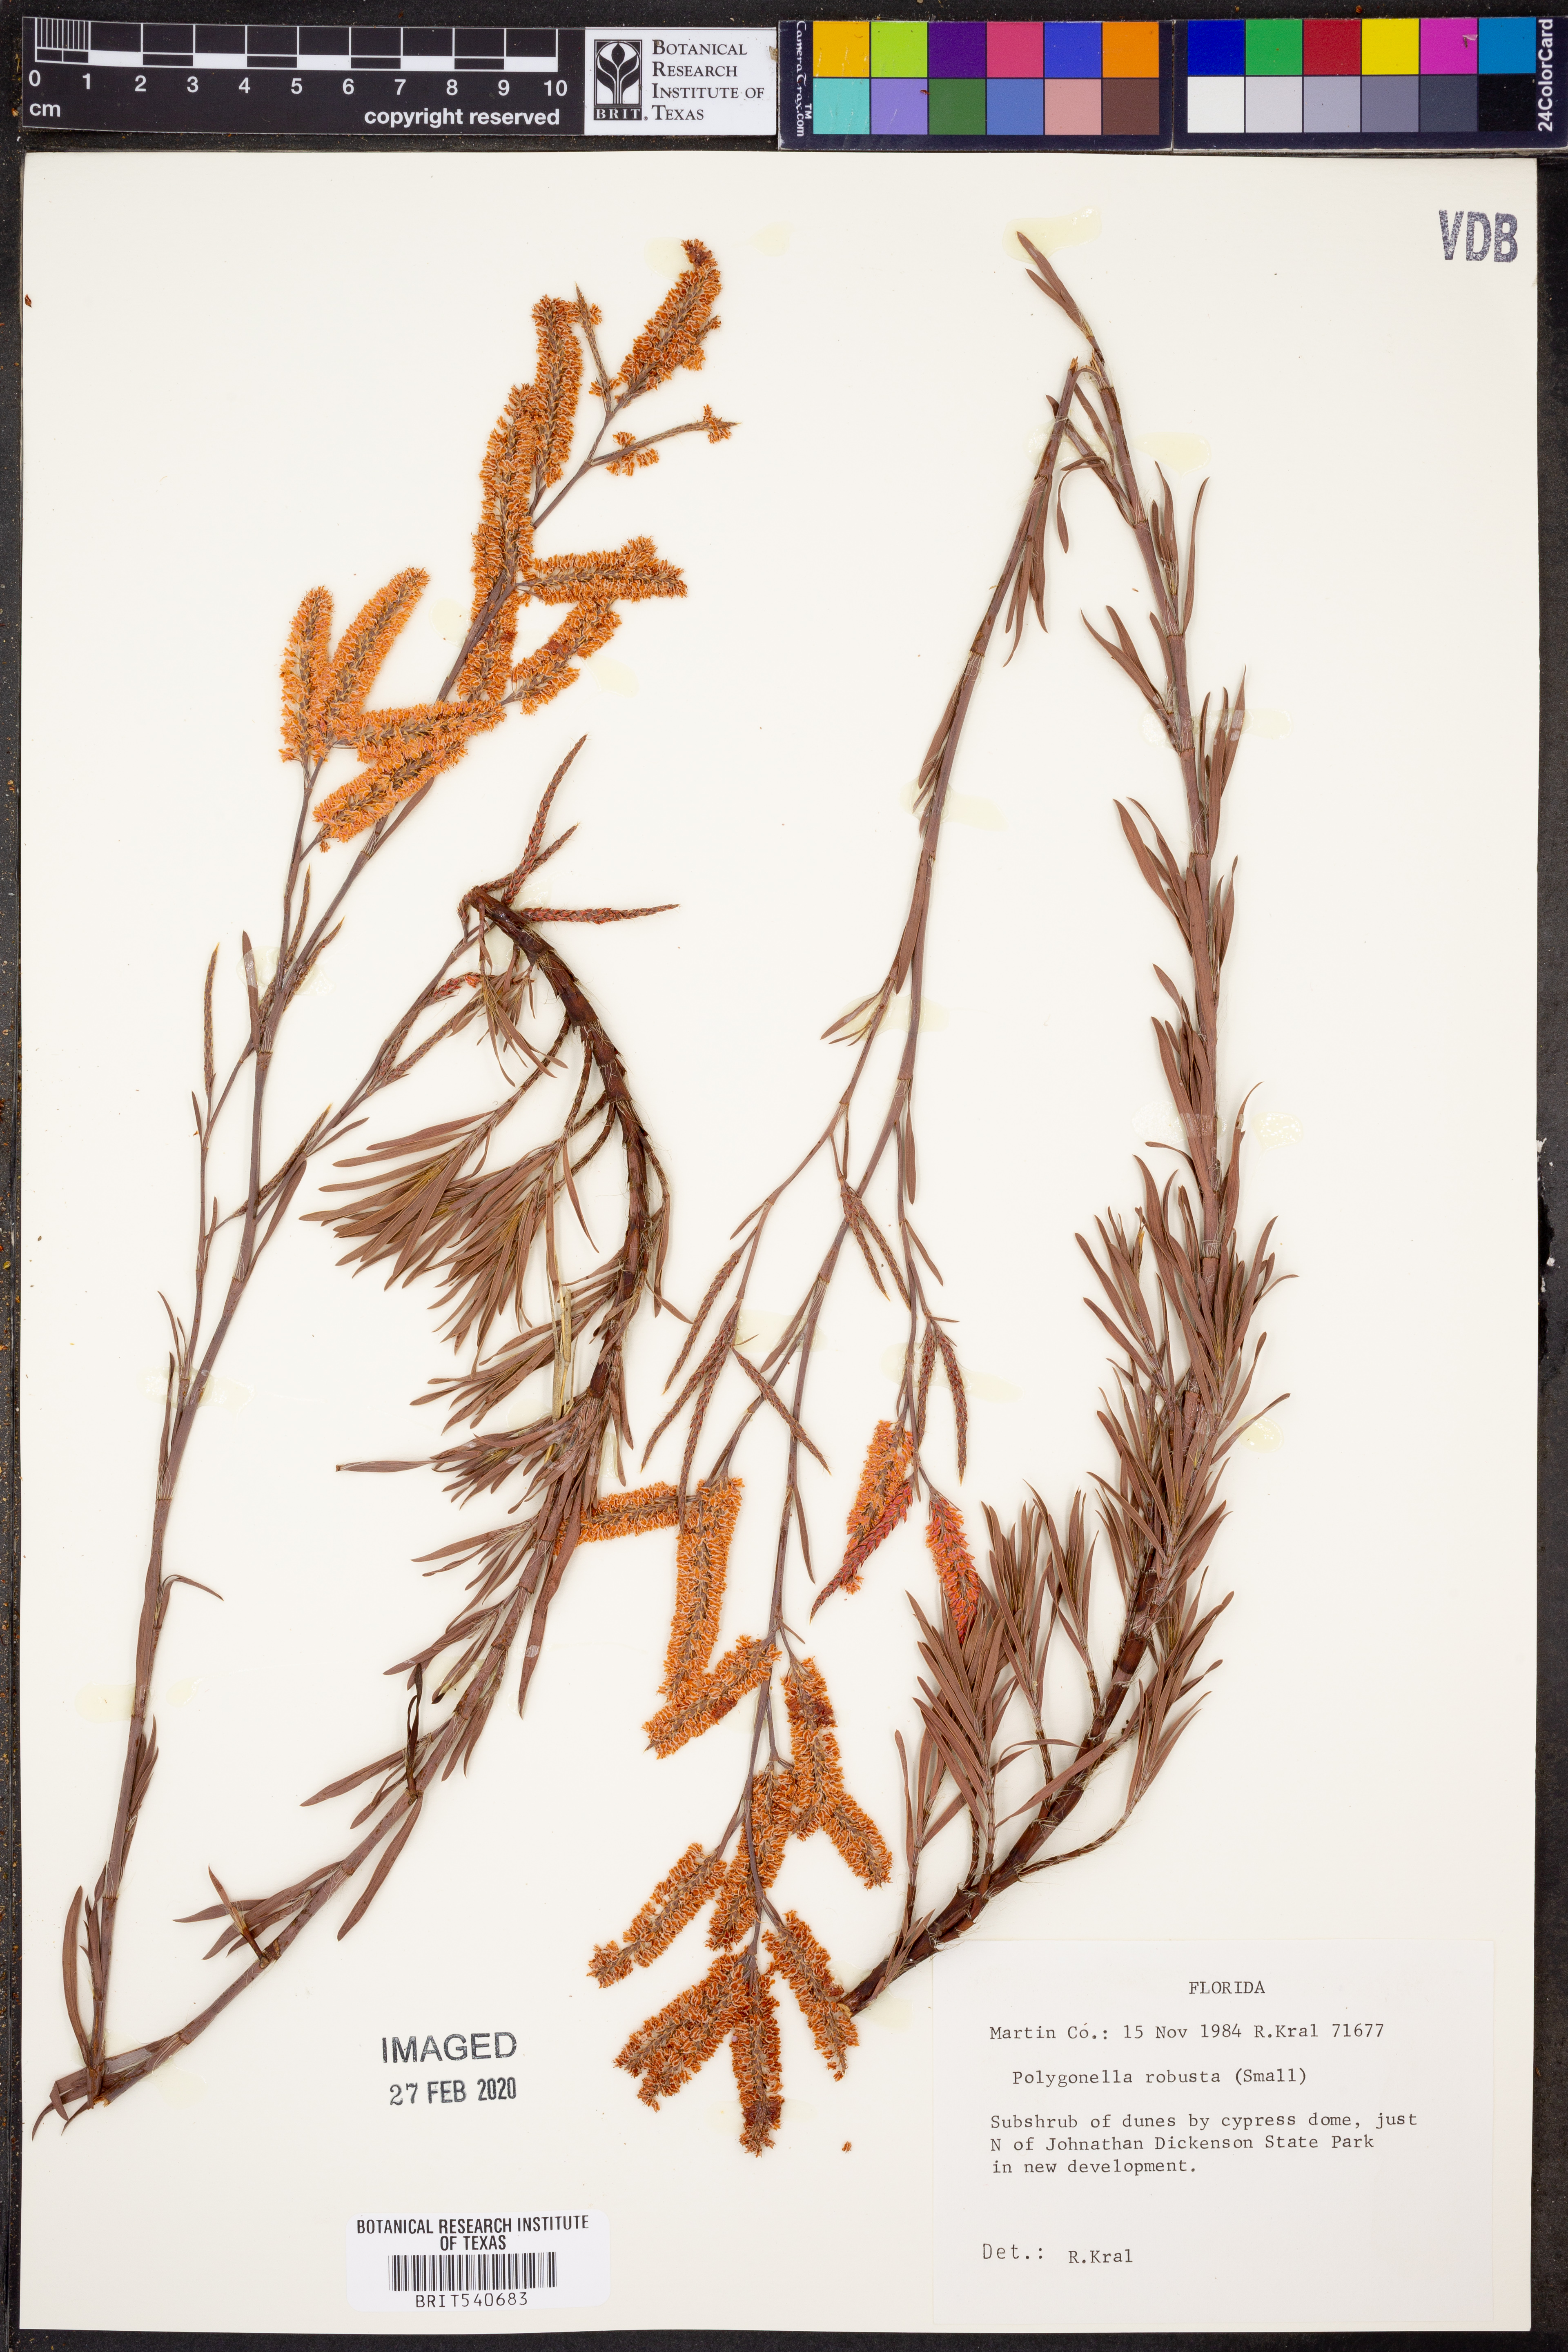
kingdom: Plantae
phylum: Tracheophyta
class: Magnoliopsida
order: Caryophyllales
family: Polygonaceae
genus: Polygonella
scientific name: Polygonella robusta
